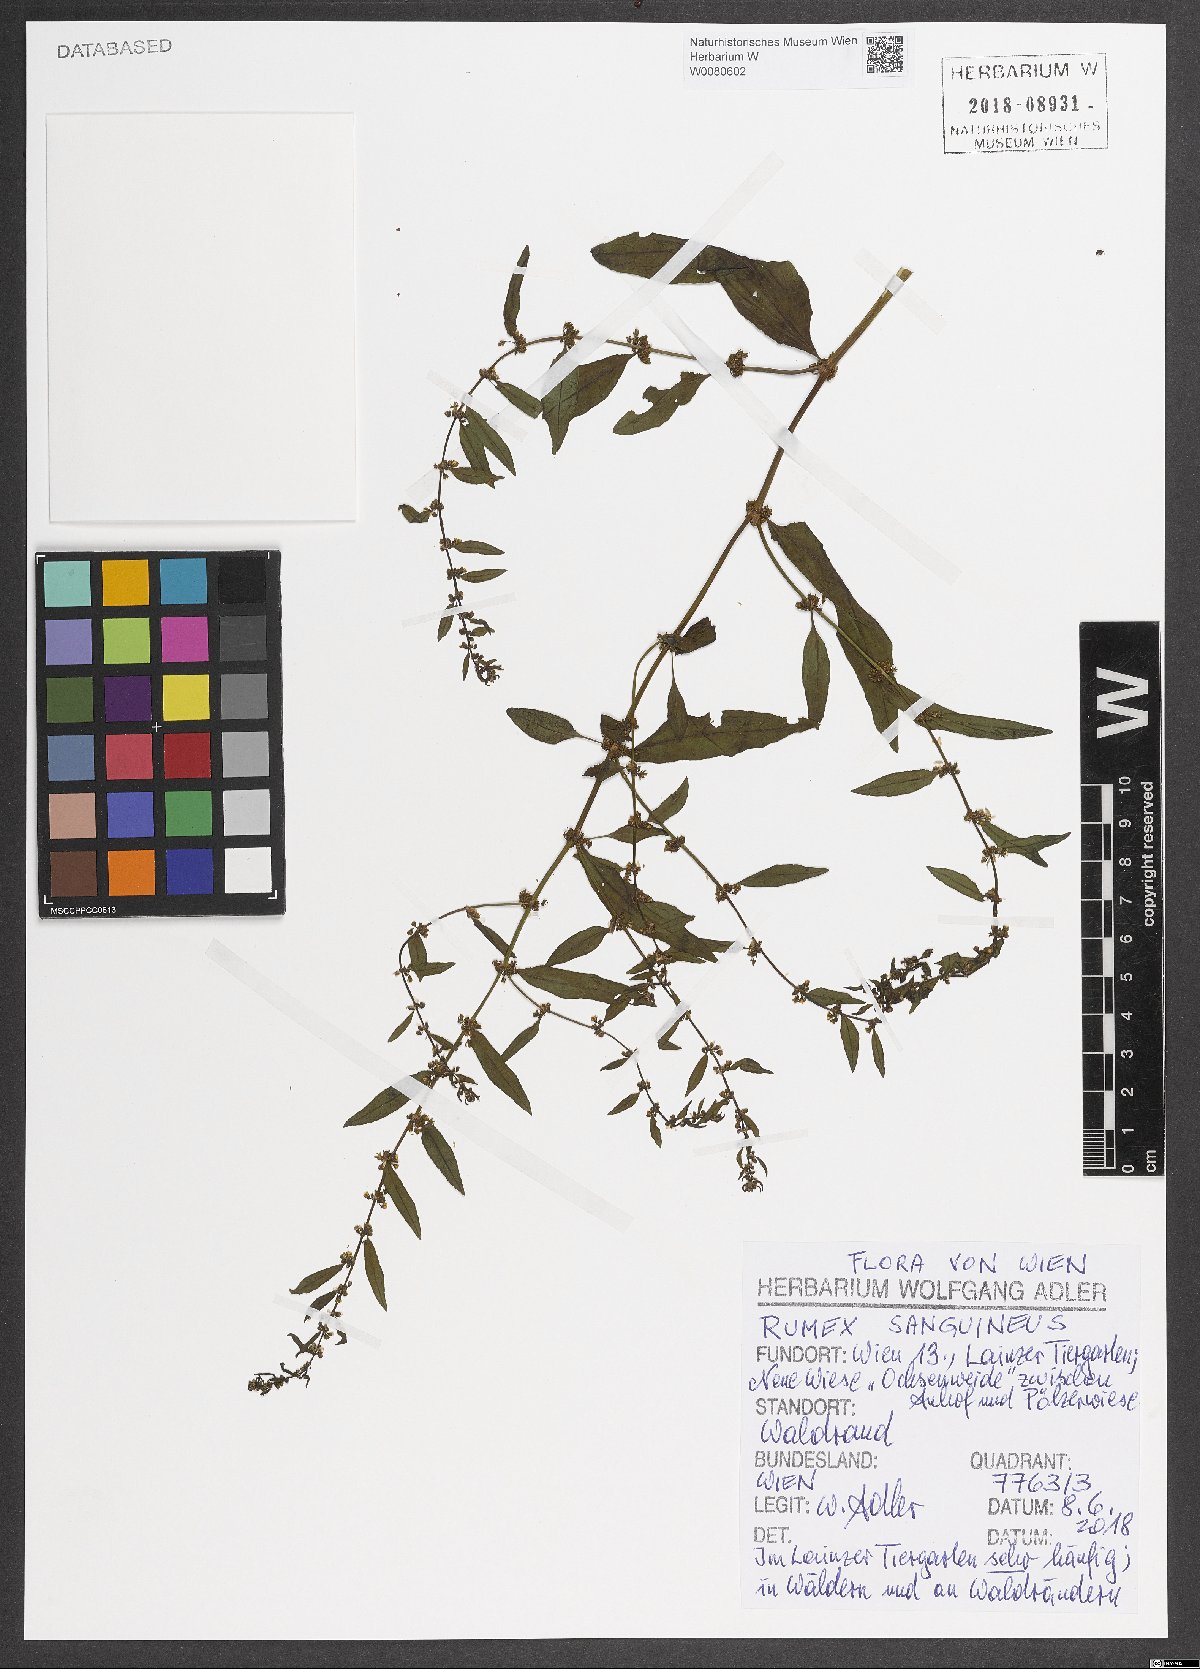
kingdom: Plantae
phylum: Tracheophyta
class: Magnoliopsida
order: Caryophyllales
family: Polygonaceae
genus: Rumex
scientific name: Rumex sanguineus
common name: Wood dock
